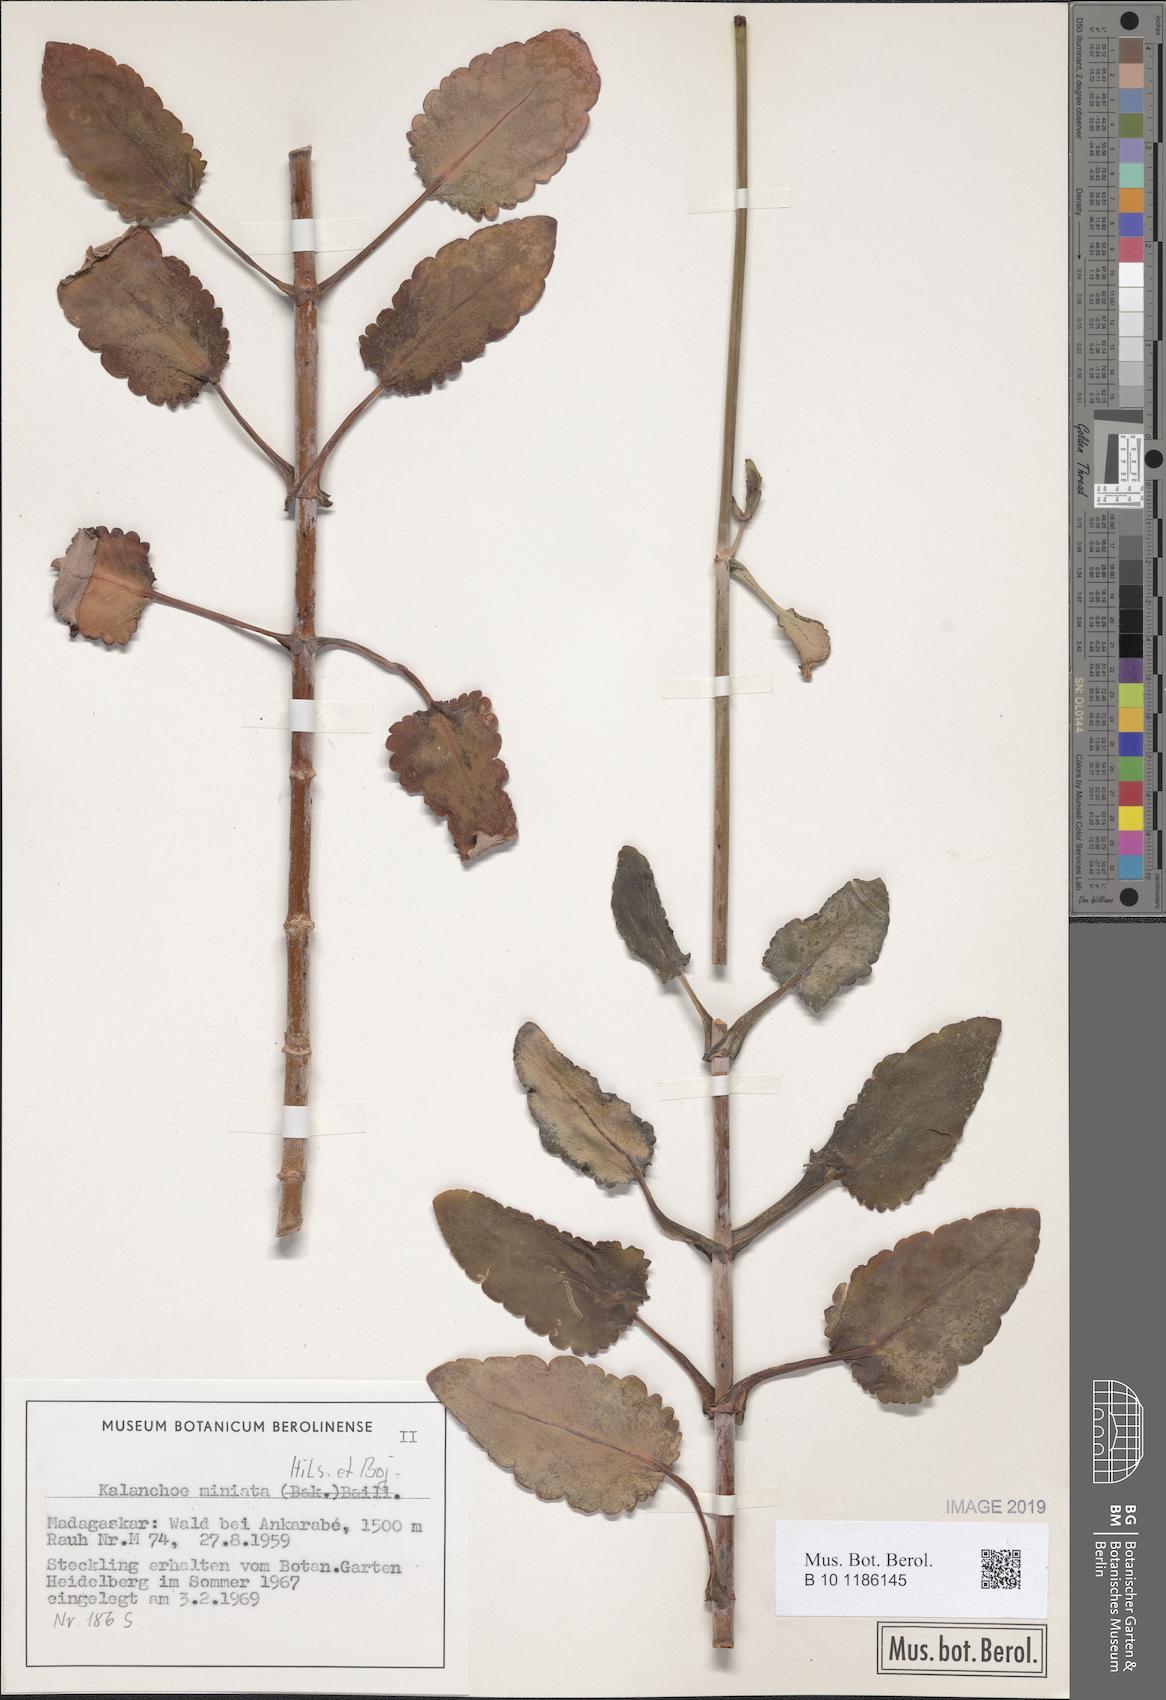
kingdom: Plantae
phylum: Tracheophyta
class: Magnoliopsida
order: Saxifragales
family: Crassulaceae
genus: Kalanchoe
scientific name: Kalanchoe miniata
